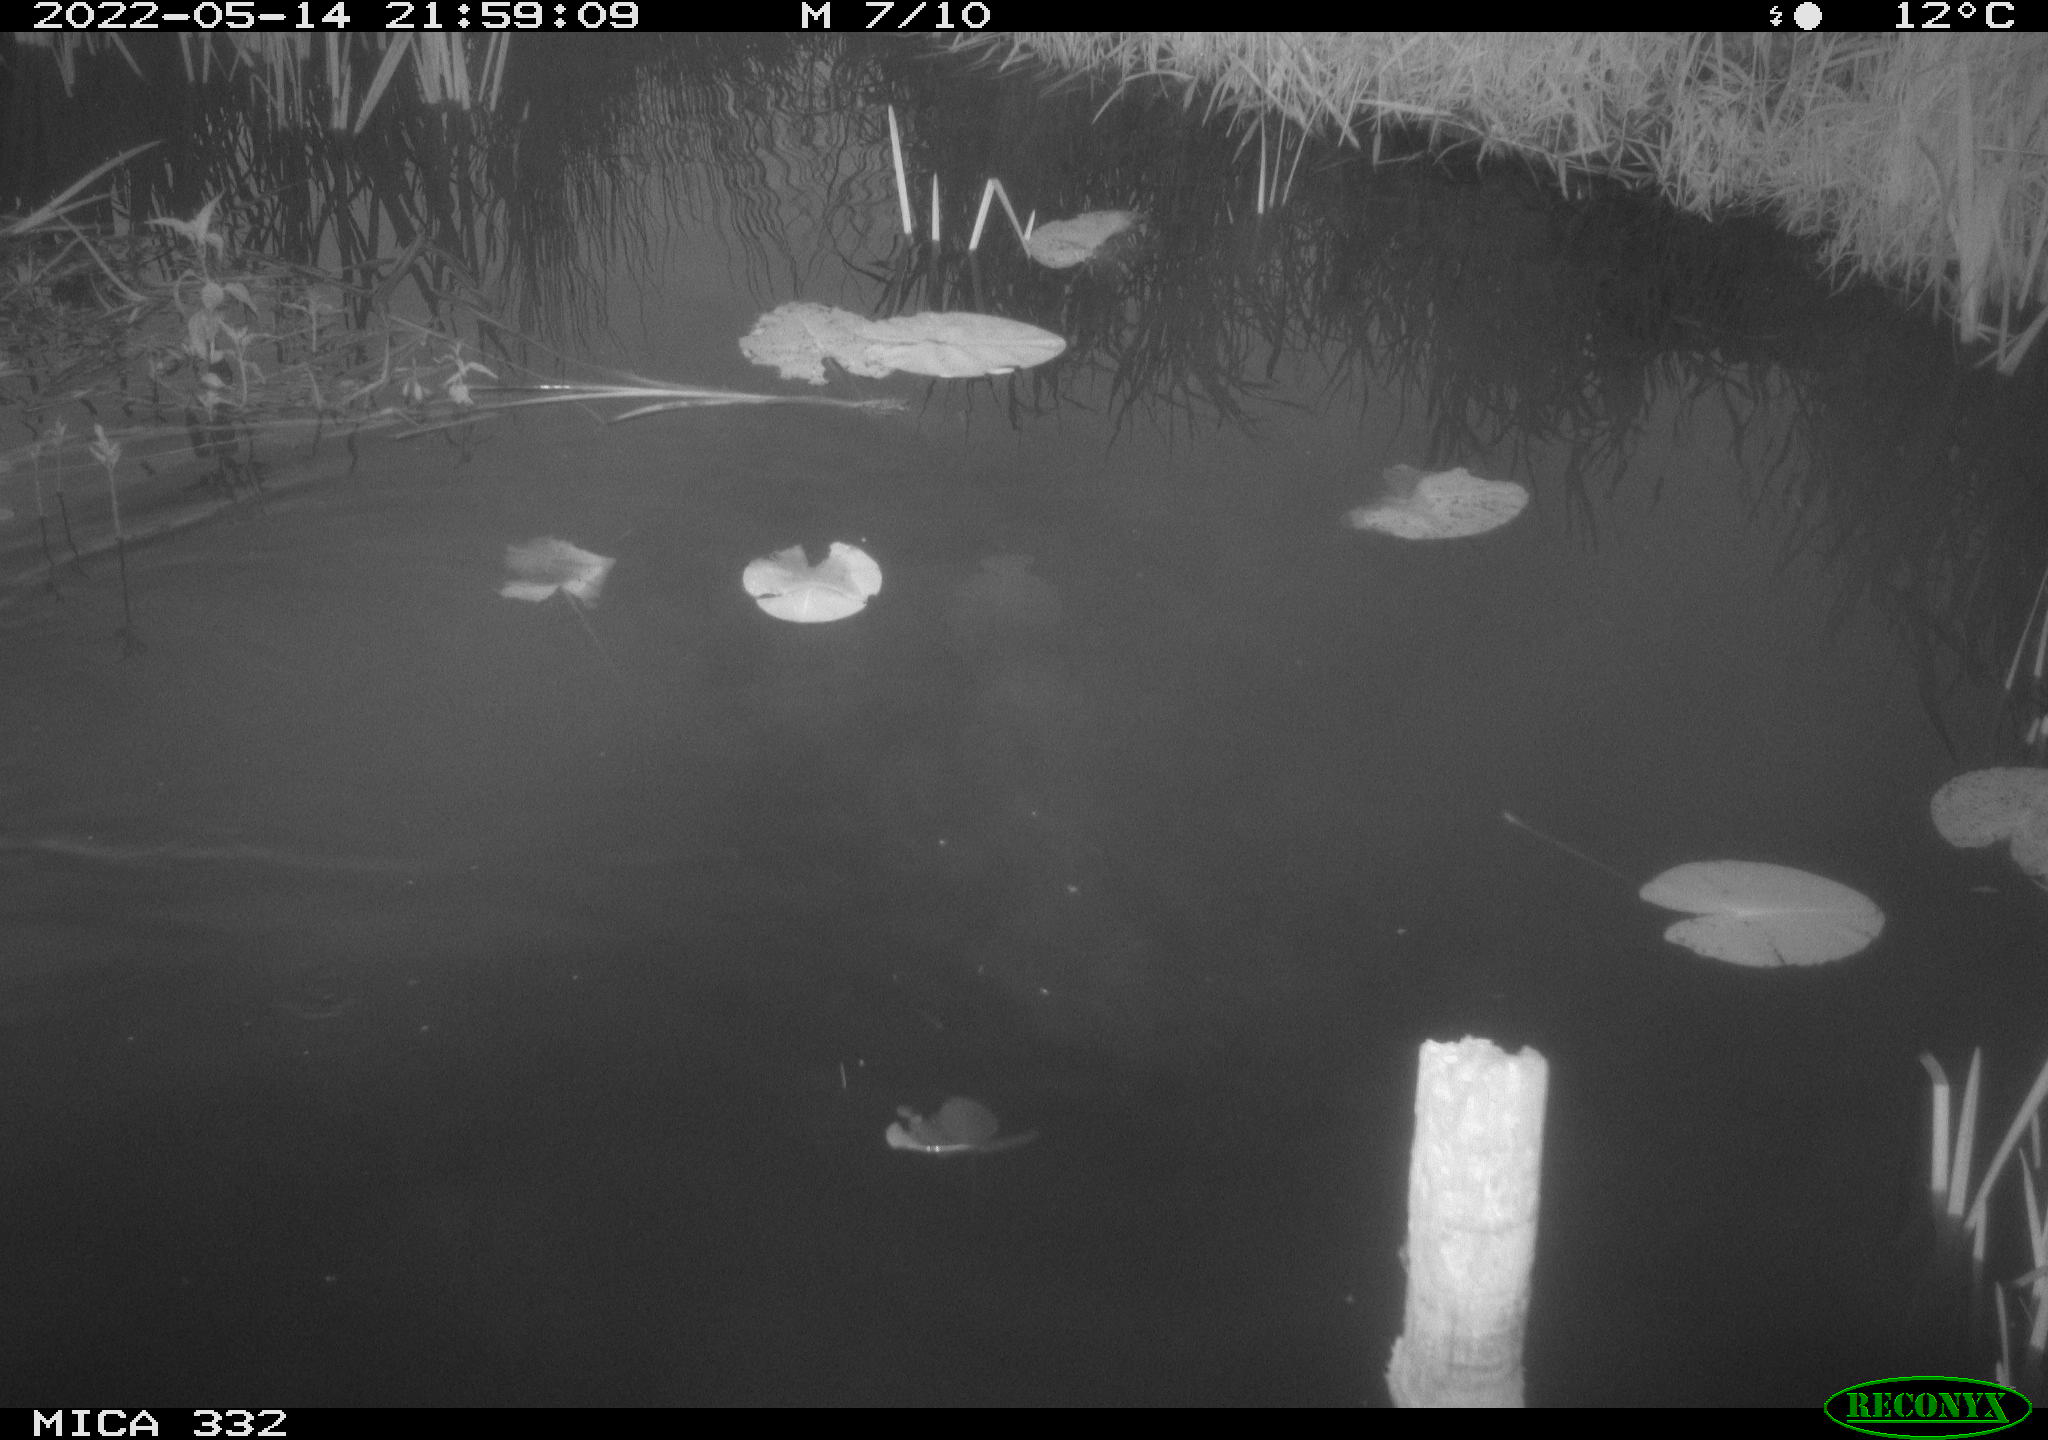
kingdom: Animalia
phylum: Chordata
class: Aves
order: Anseriformes
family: Anatidae
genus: Anas
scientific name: Anas platyrhynchos
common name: Mallard
